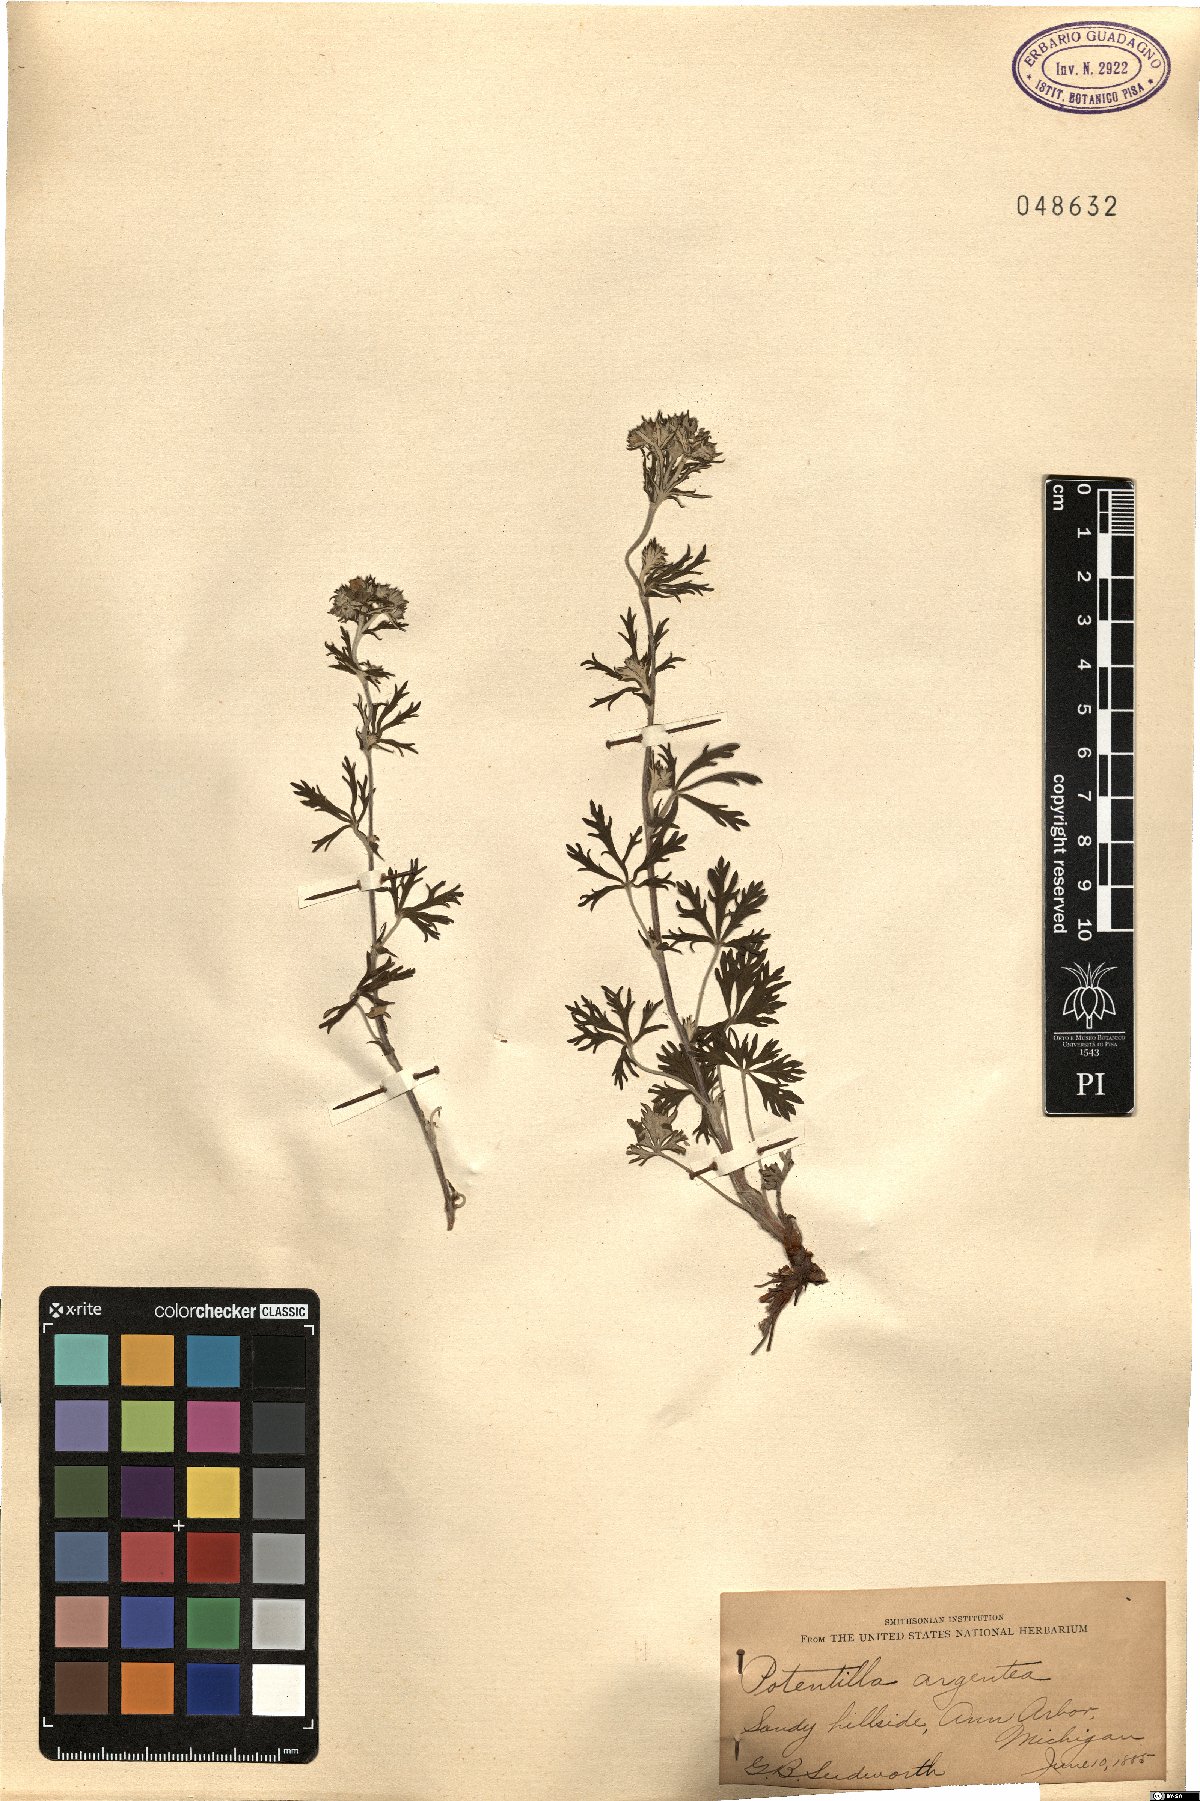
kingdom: Plantae
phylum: Tracheophyta
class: Magnoliopsida
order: Rosales
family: Rosaceae
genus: Potentilla
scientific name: Potentilla argentea
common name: Hoary cinquefoil
